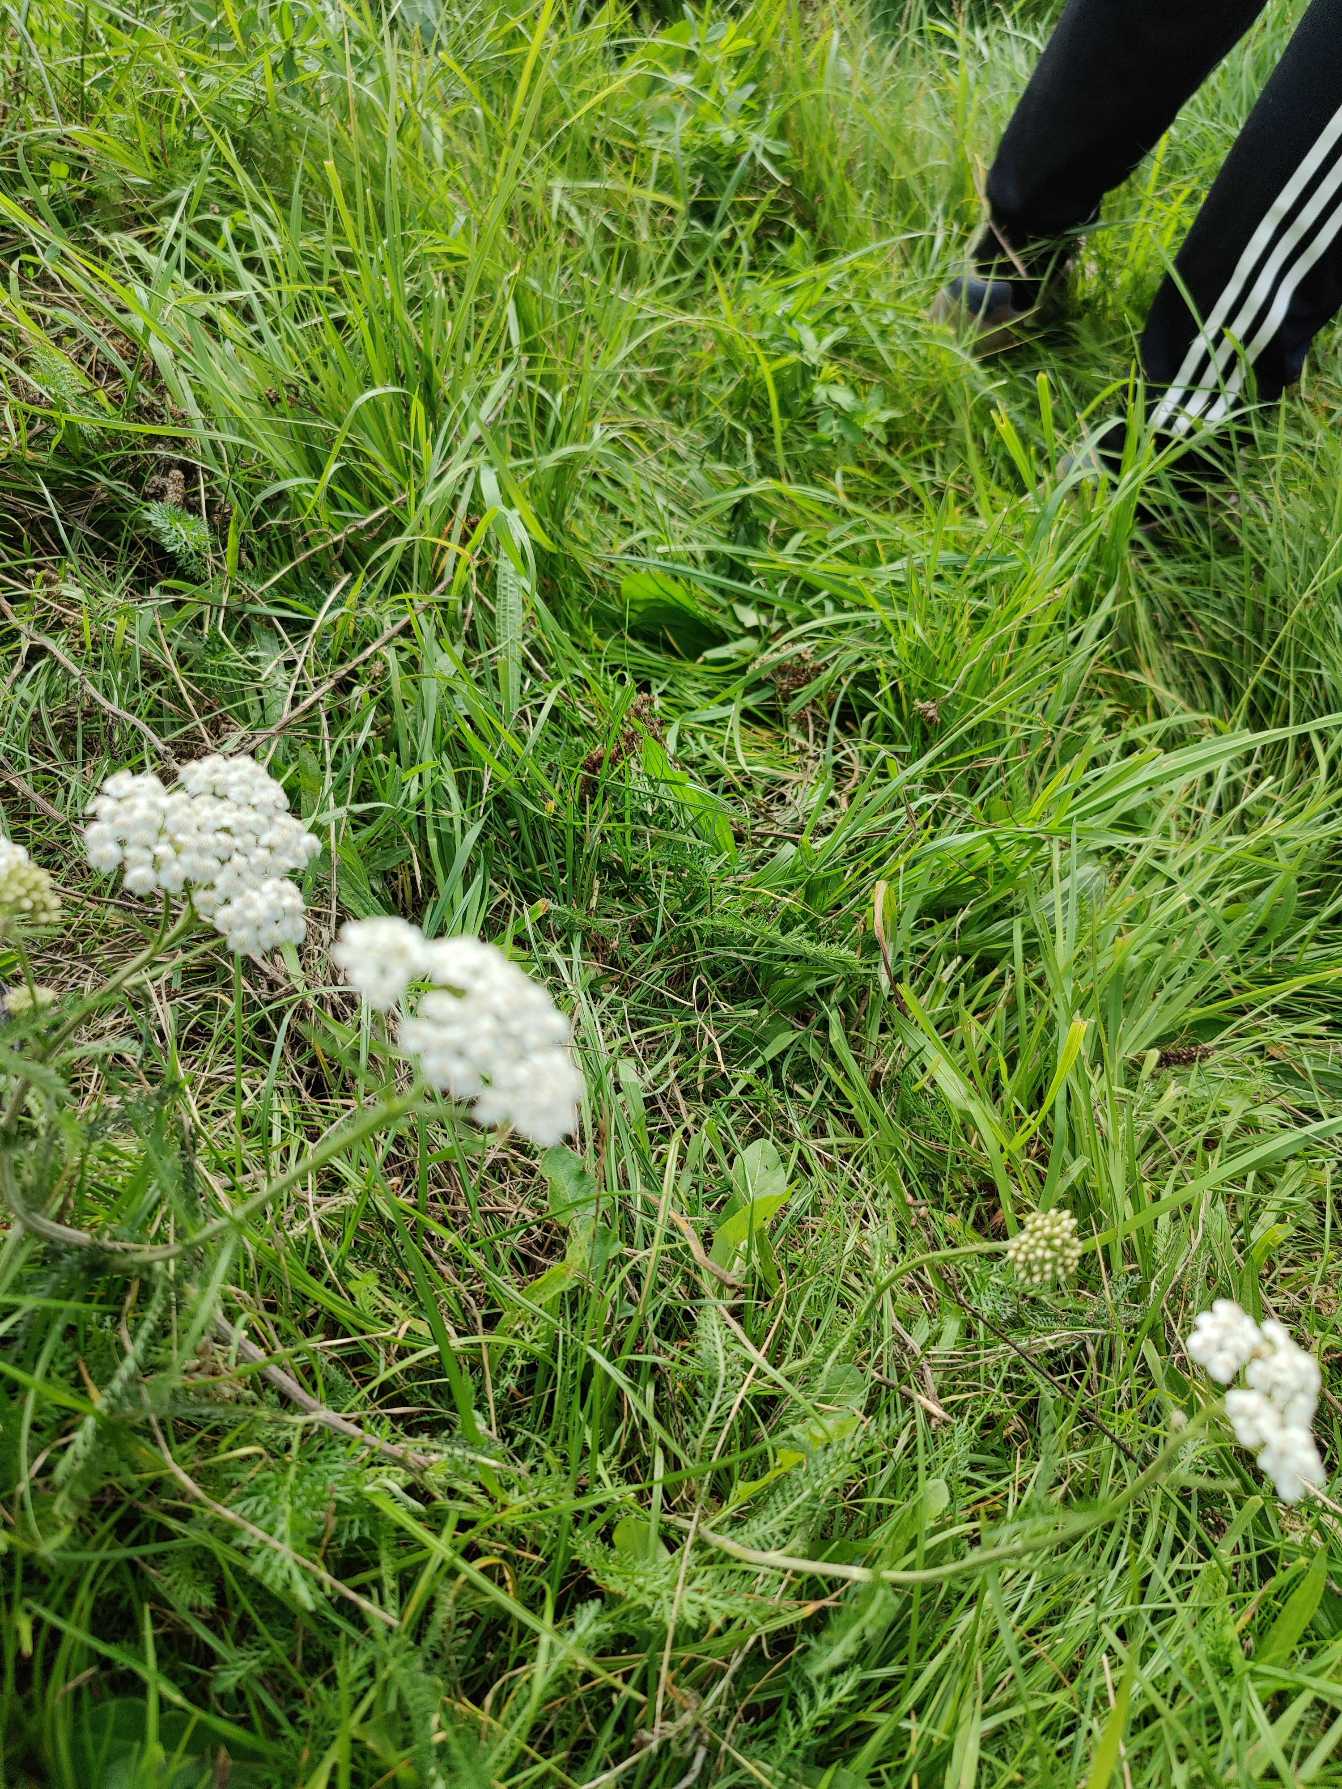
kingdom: Plantae
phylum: Tracheophyta
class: Magnoliopsida
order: Asterales
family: Asteraceae
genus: Achillea
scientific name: Achillea millefolium
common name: Almindelig røllike
